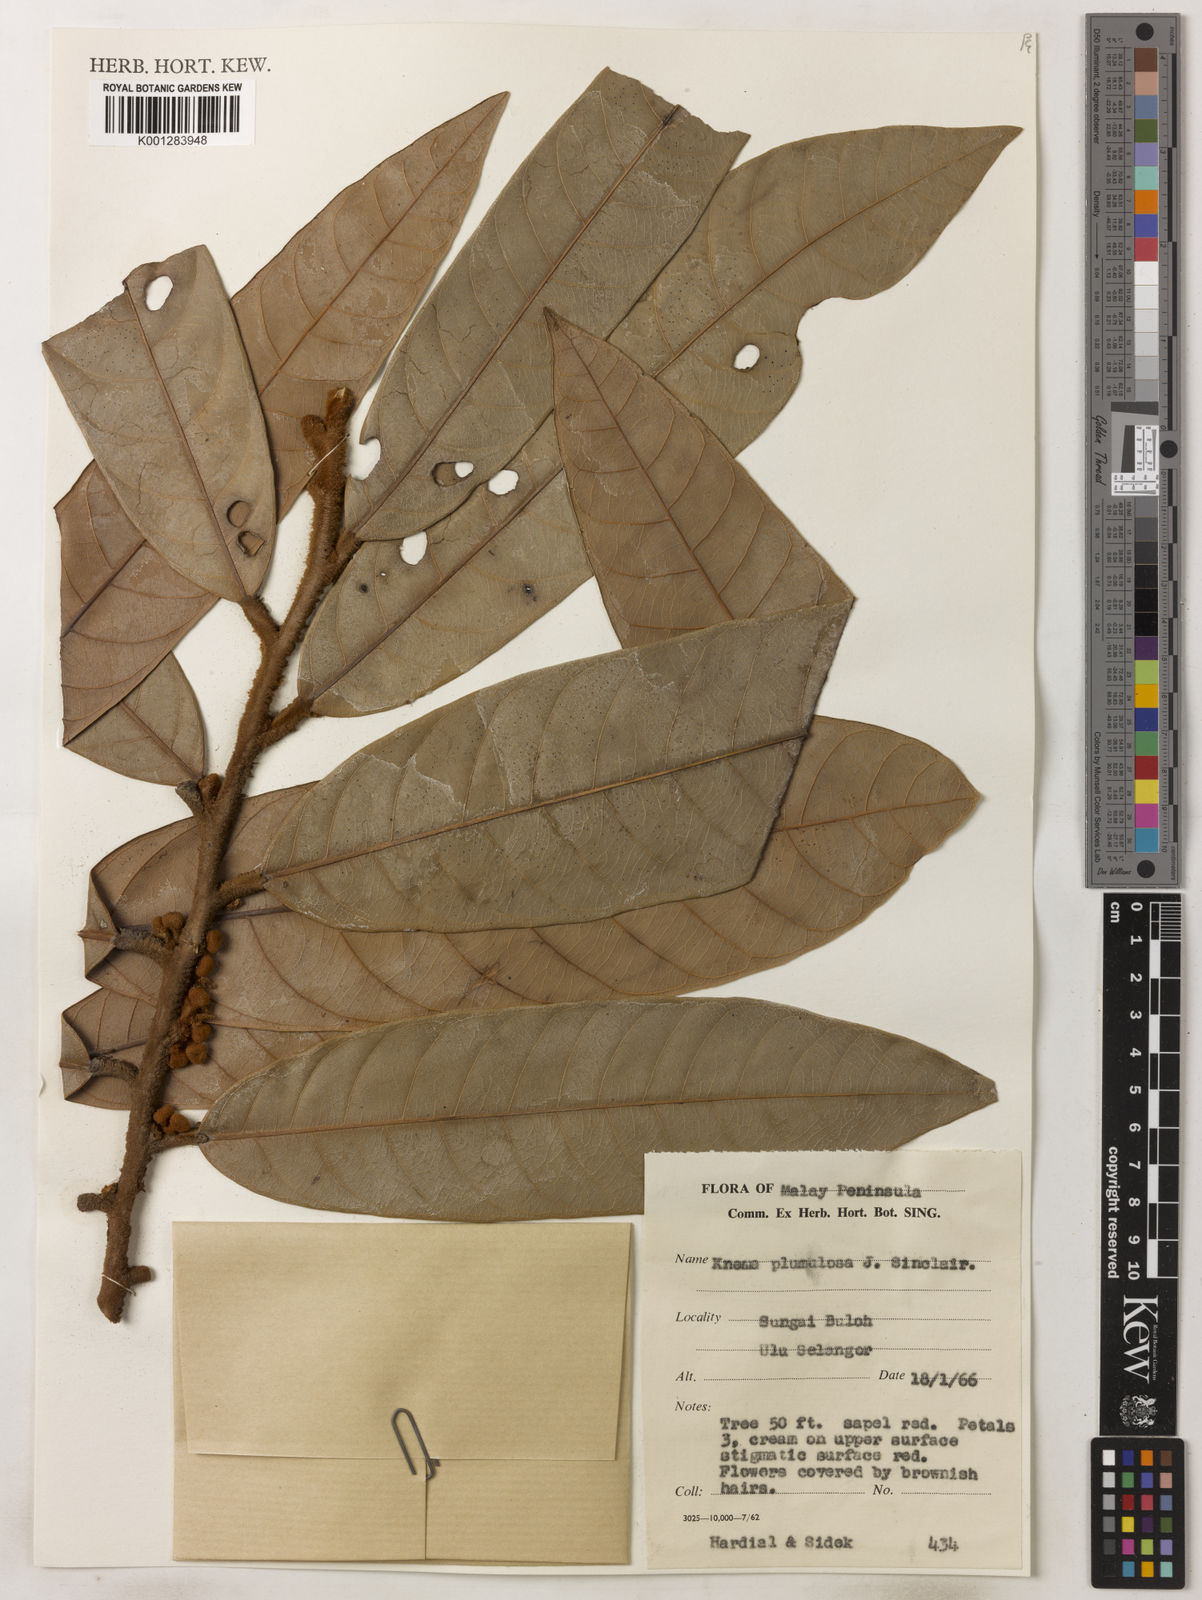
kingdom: Plantae
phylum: Tracheophyta
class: Magnoliopsida
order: Magnoliales
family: Myristicaceae
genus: Knema
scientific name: Knema plumulosa
